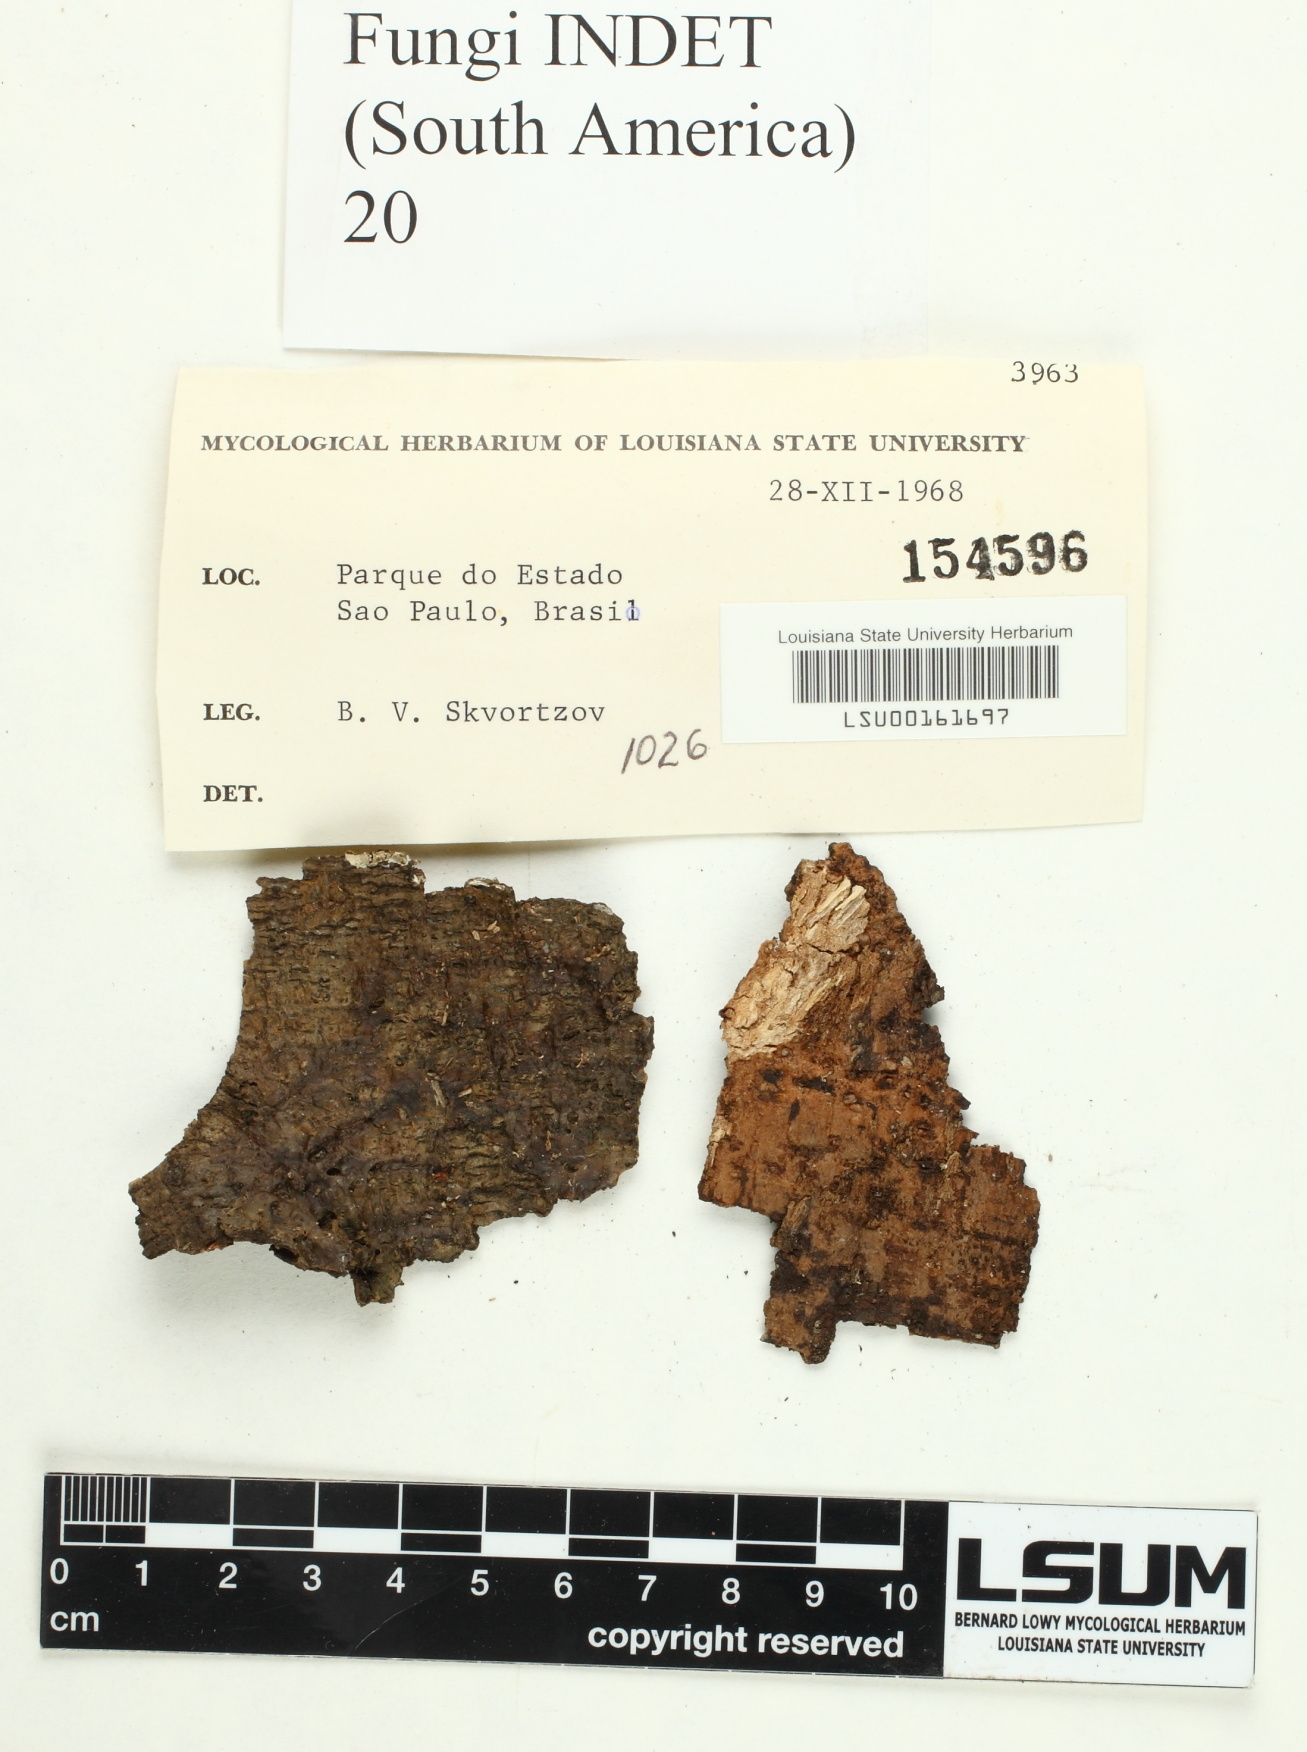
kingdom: Fungi
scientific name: Fungi
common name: Fungi
